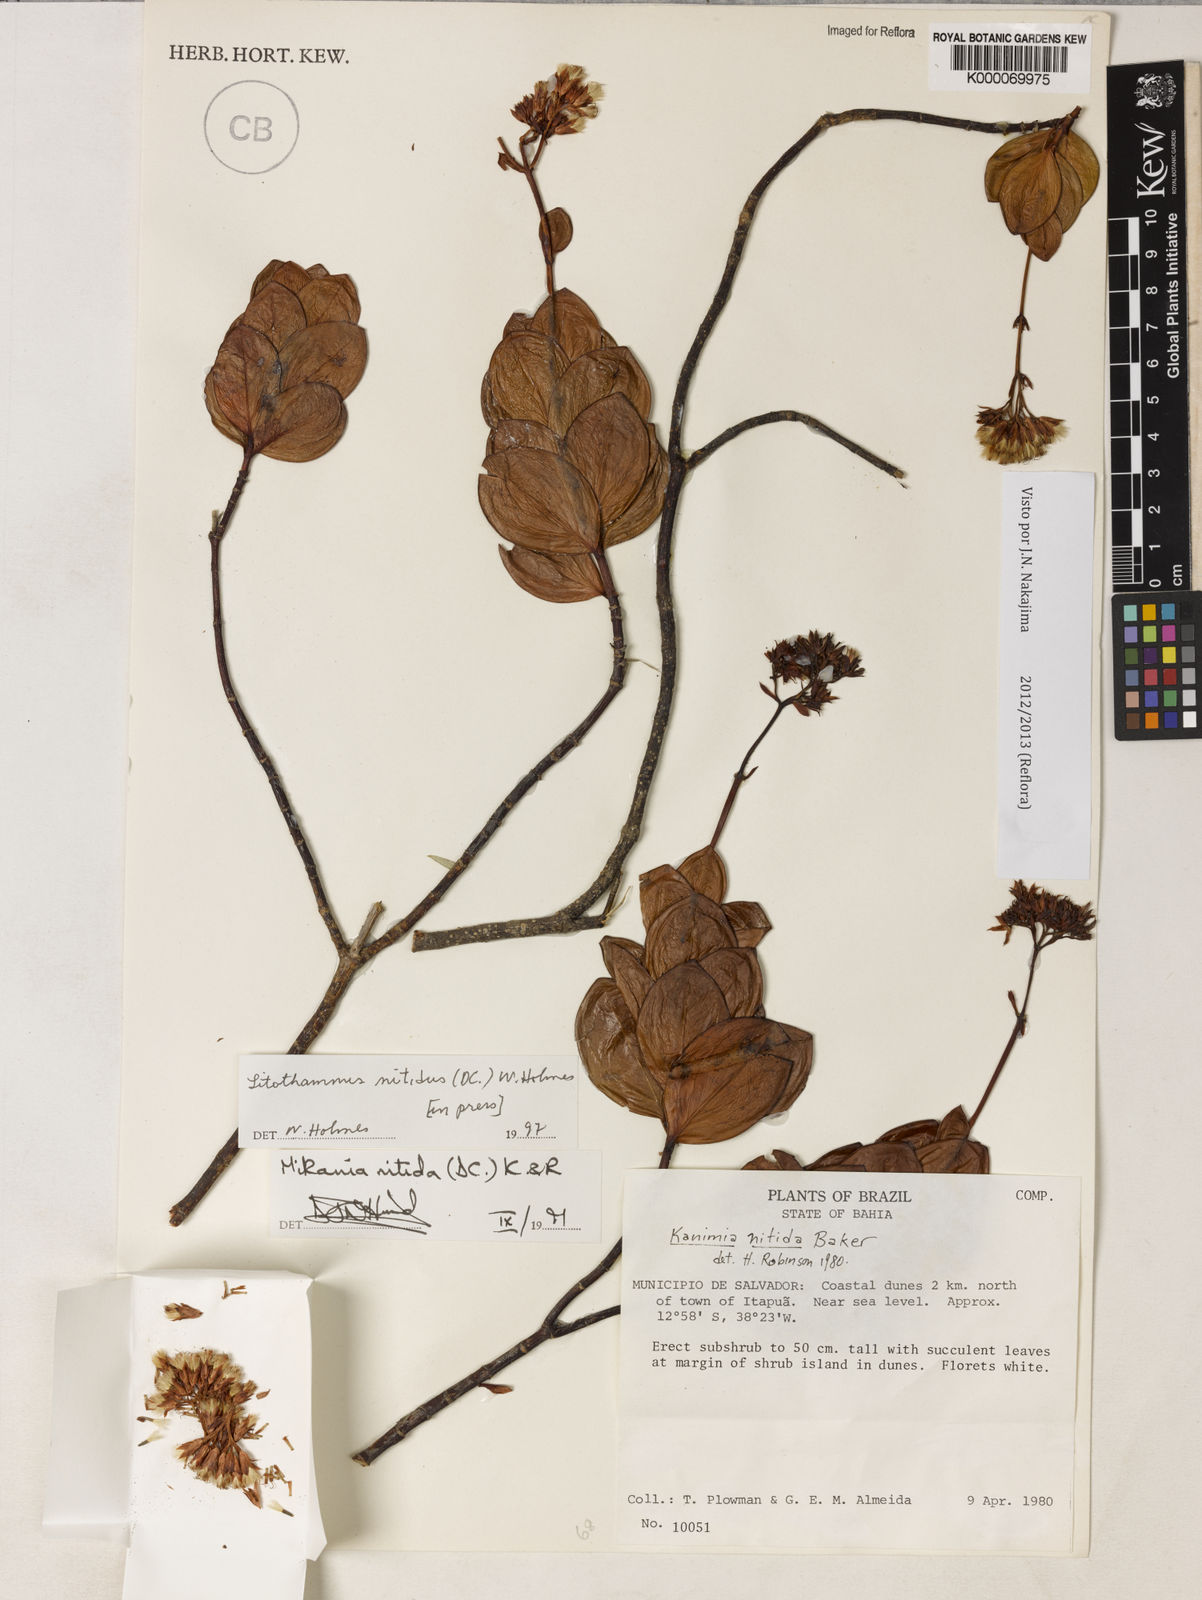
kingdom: Plantae
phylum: Tracheophyta
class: Magnoliopsida
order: Asterales
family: Asteraceae
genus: Litothamnus
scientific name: Litothamnus nitidus
